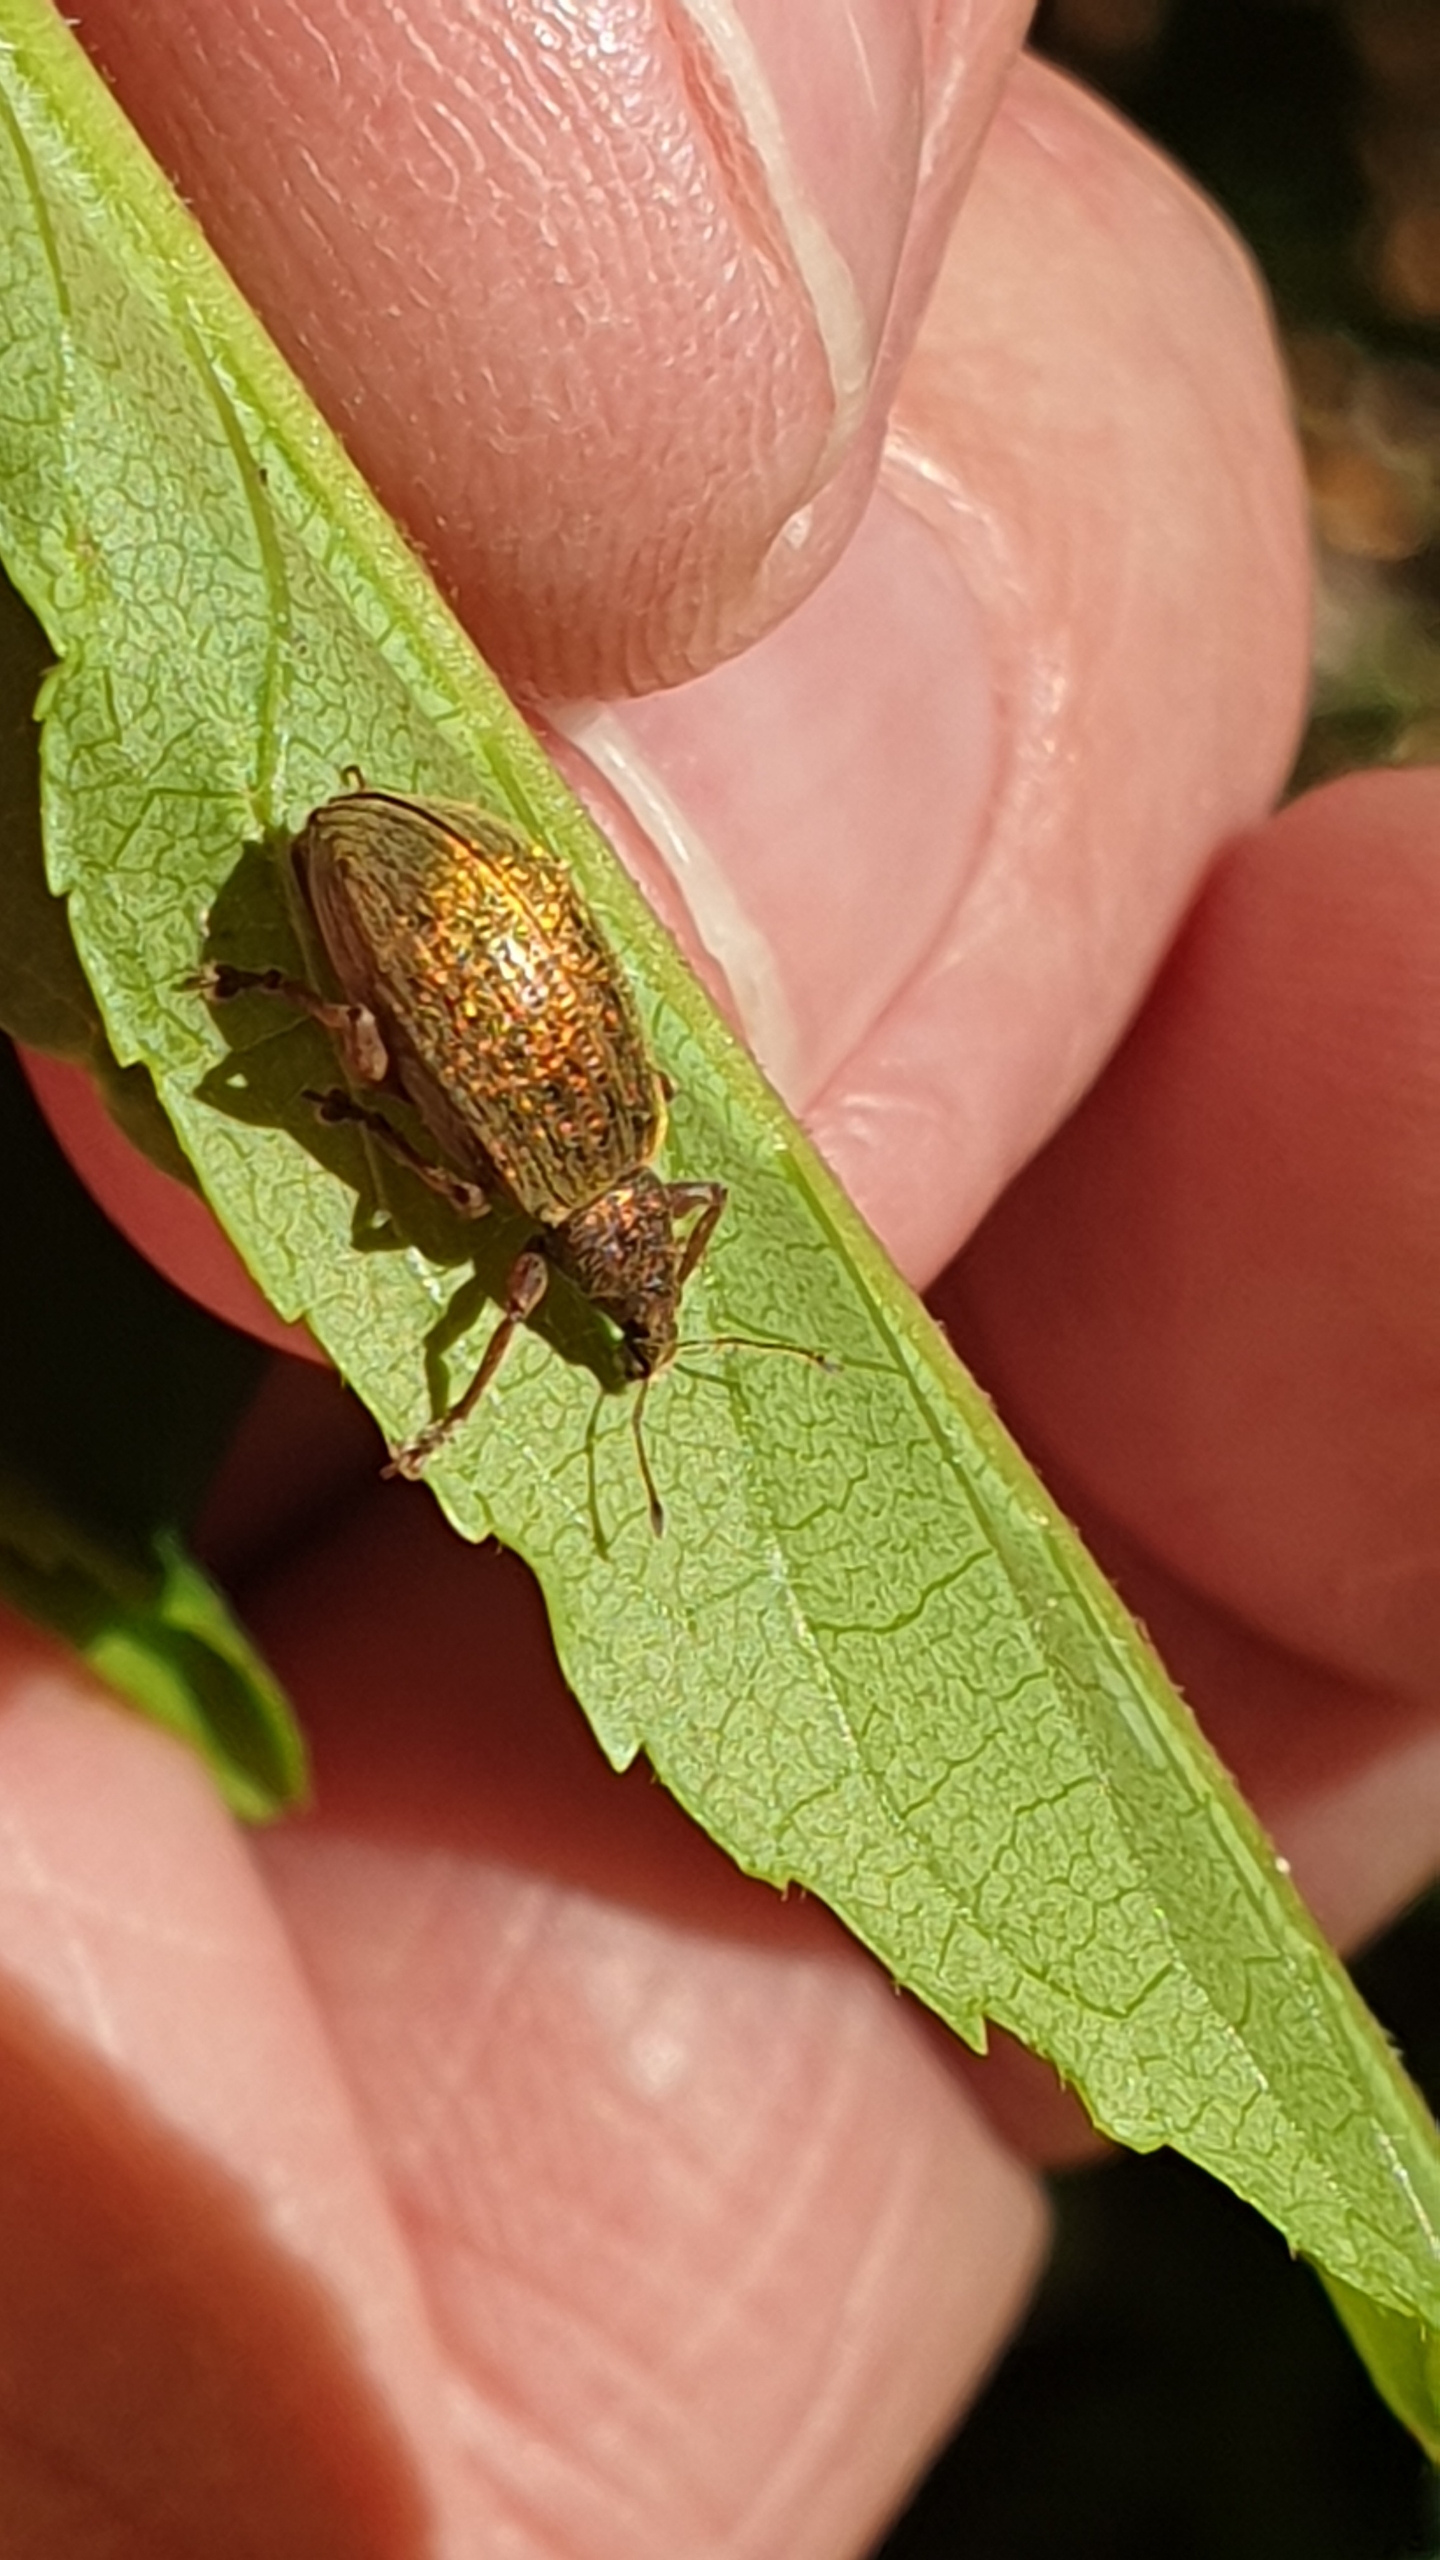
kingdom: Animalia
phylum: Arthropoda
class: Insecta
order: Coleoptera
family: Curculionidae
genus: Polydrusus
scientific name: Polydrusus mollis
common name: Blodsnudebille
